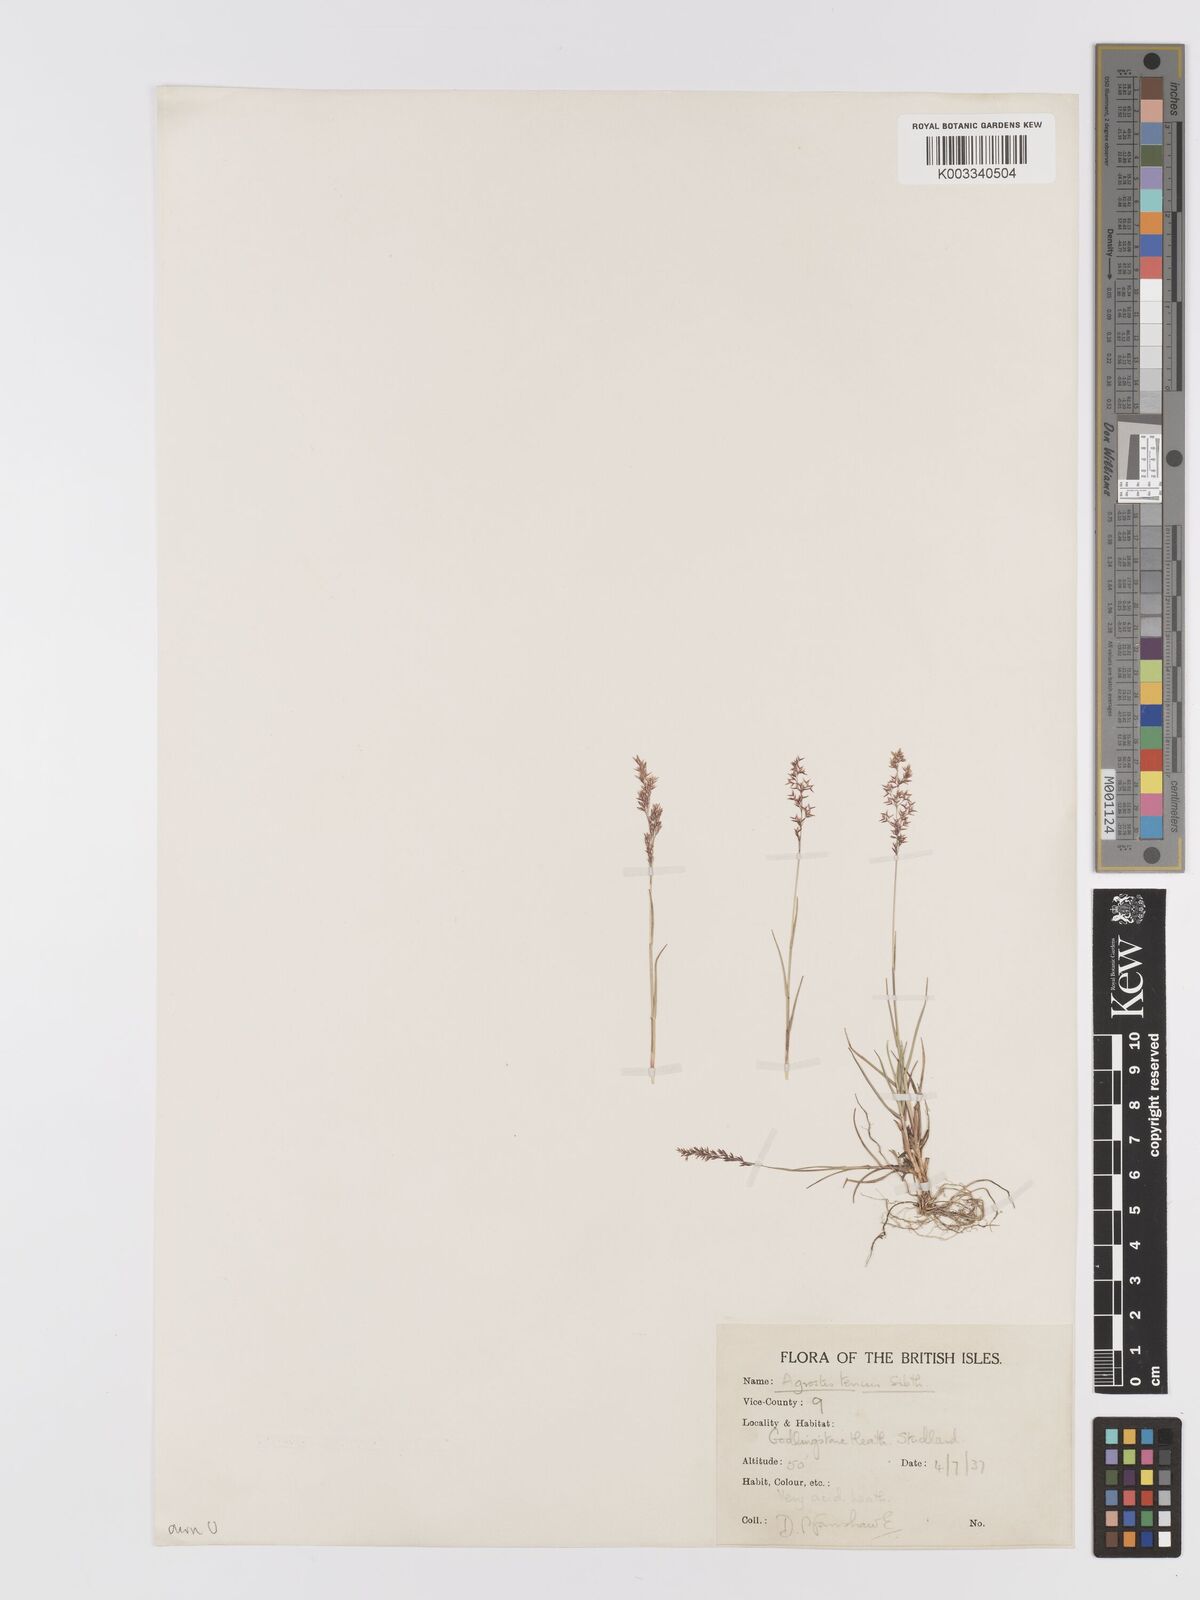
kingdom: Plantae
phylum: Tracheophyta
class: Liliopsida
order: Poales
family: Poaceae
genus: Agrostis
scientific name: Agrostis capillaris
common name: Colonial bentgrass
